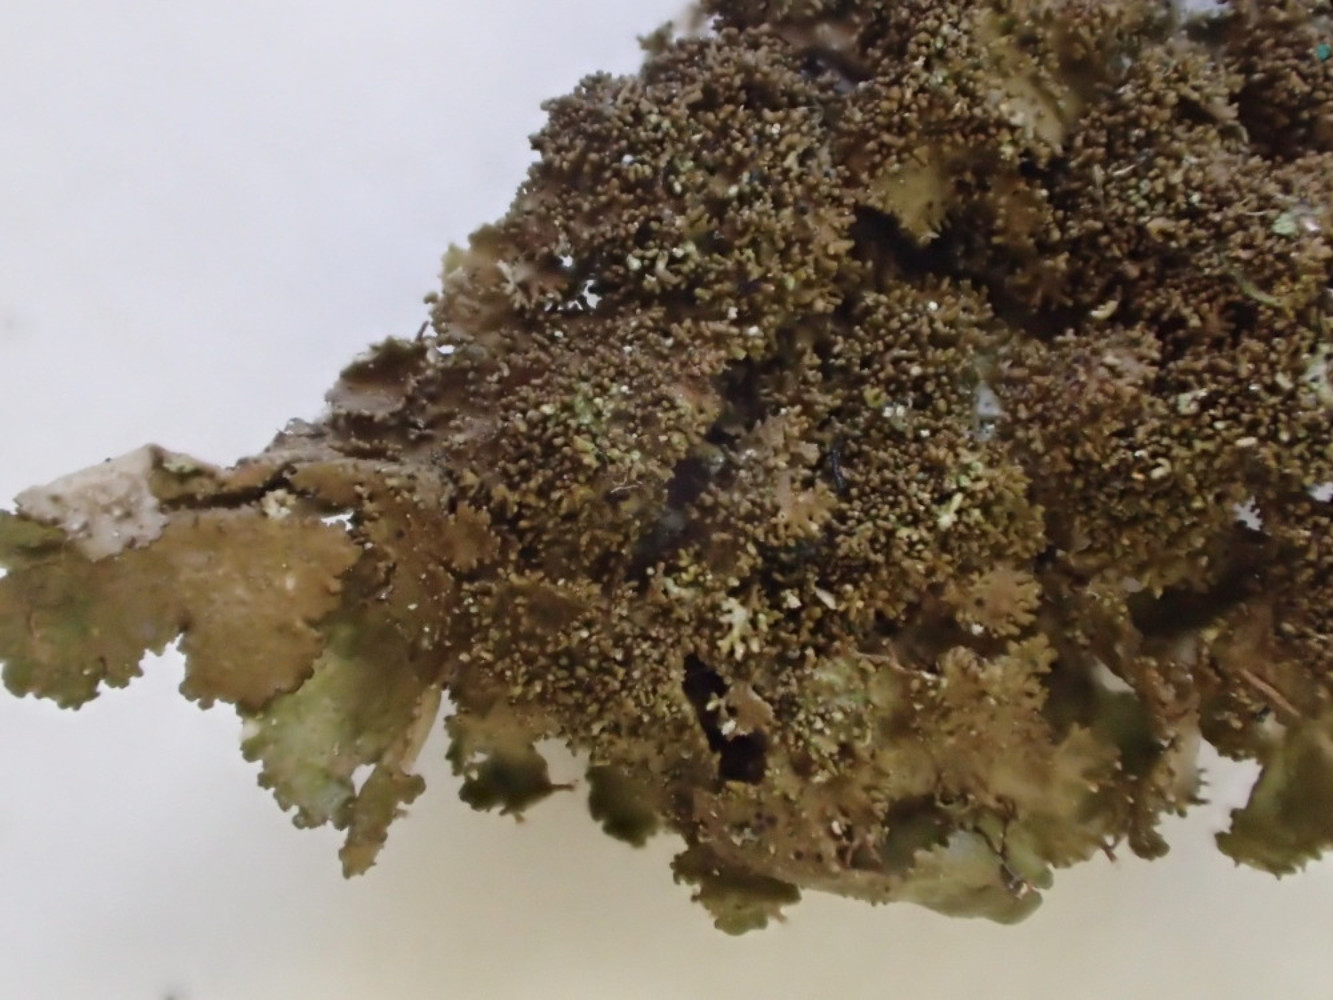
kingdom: Fungi
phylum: Ascomycota
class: Lecanoromycetes
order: Lecanorales
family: Parmeliaceae
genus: Melanohalea
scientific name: Melanohalea exasperatula
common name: kølle-skållav
